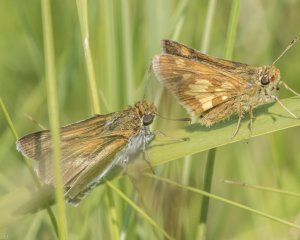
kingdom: Animalia
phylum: Arthropoda
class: Insecta
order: Lepidoptera
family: Hesperiidae
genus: Polites
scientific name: Polites coras
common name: Peck's Skipper
